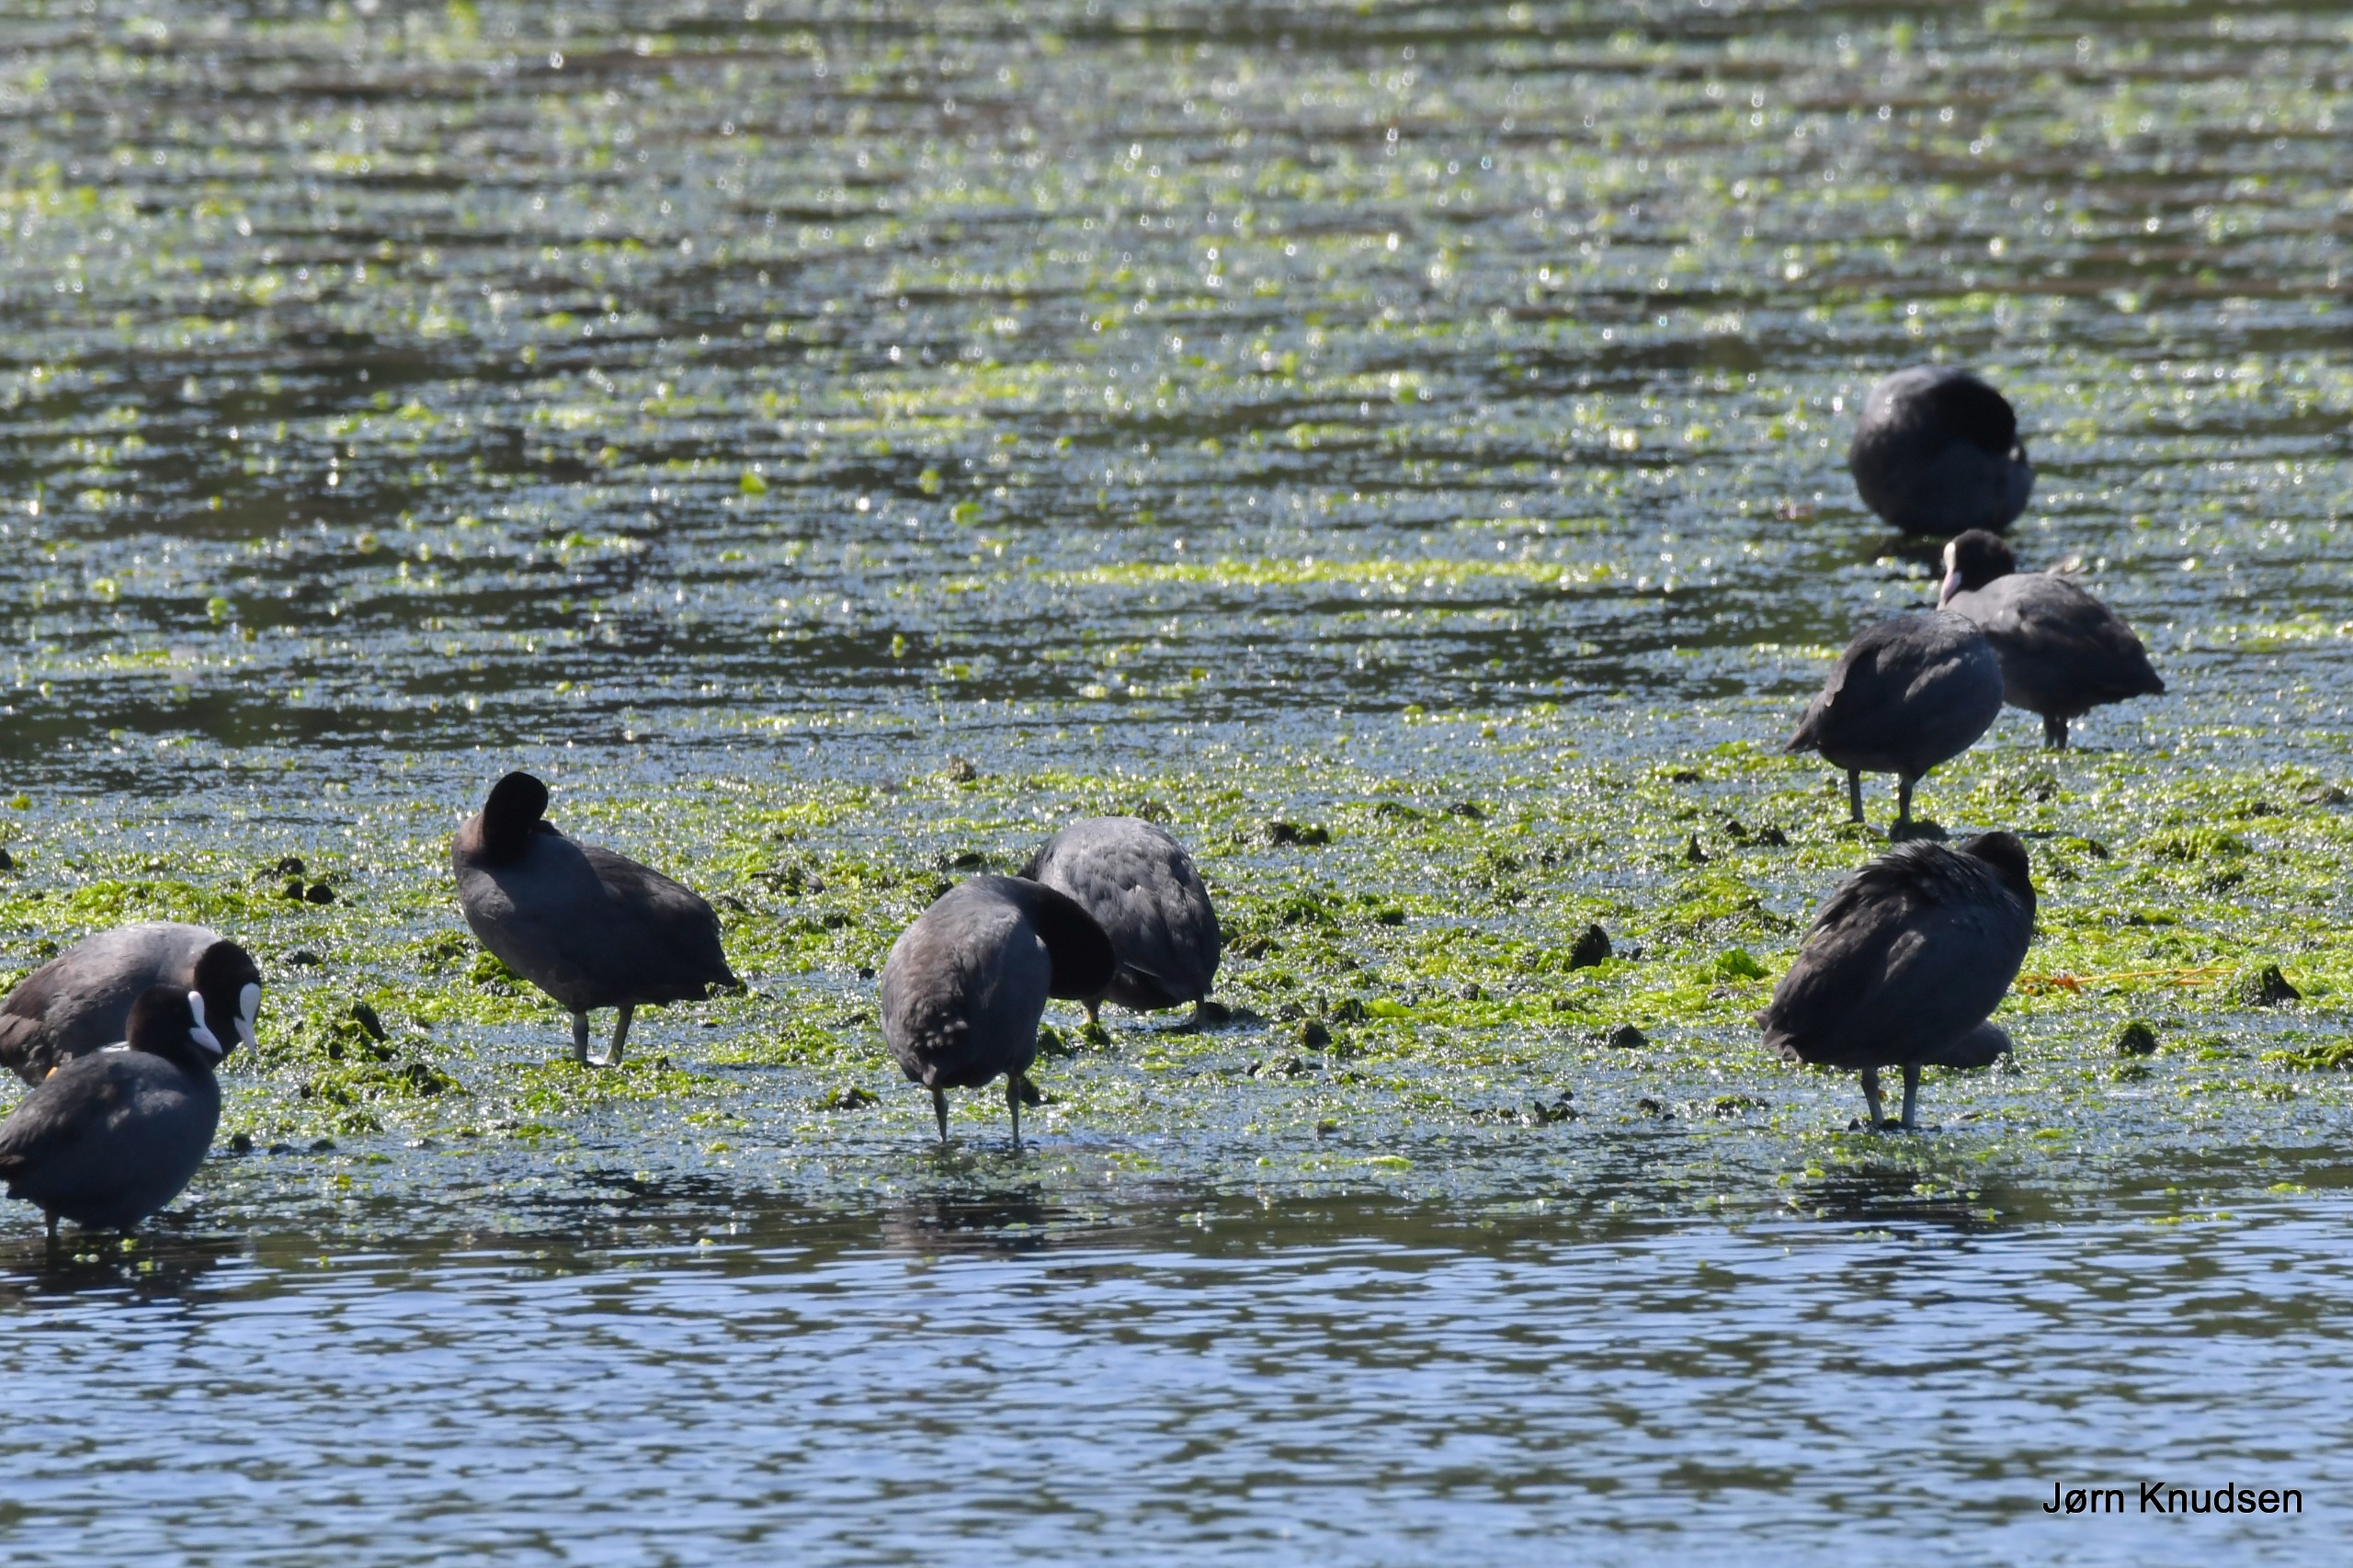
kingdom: Animalia
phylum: Chordata
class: Aves
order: Gruiformes
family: Rallidae
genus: Fulica
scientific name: Fulica atra
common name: Blishøne
